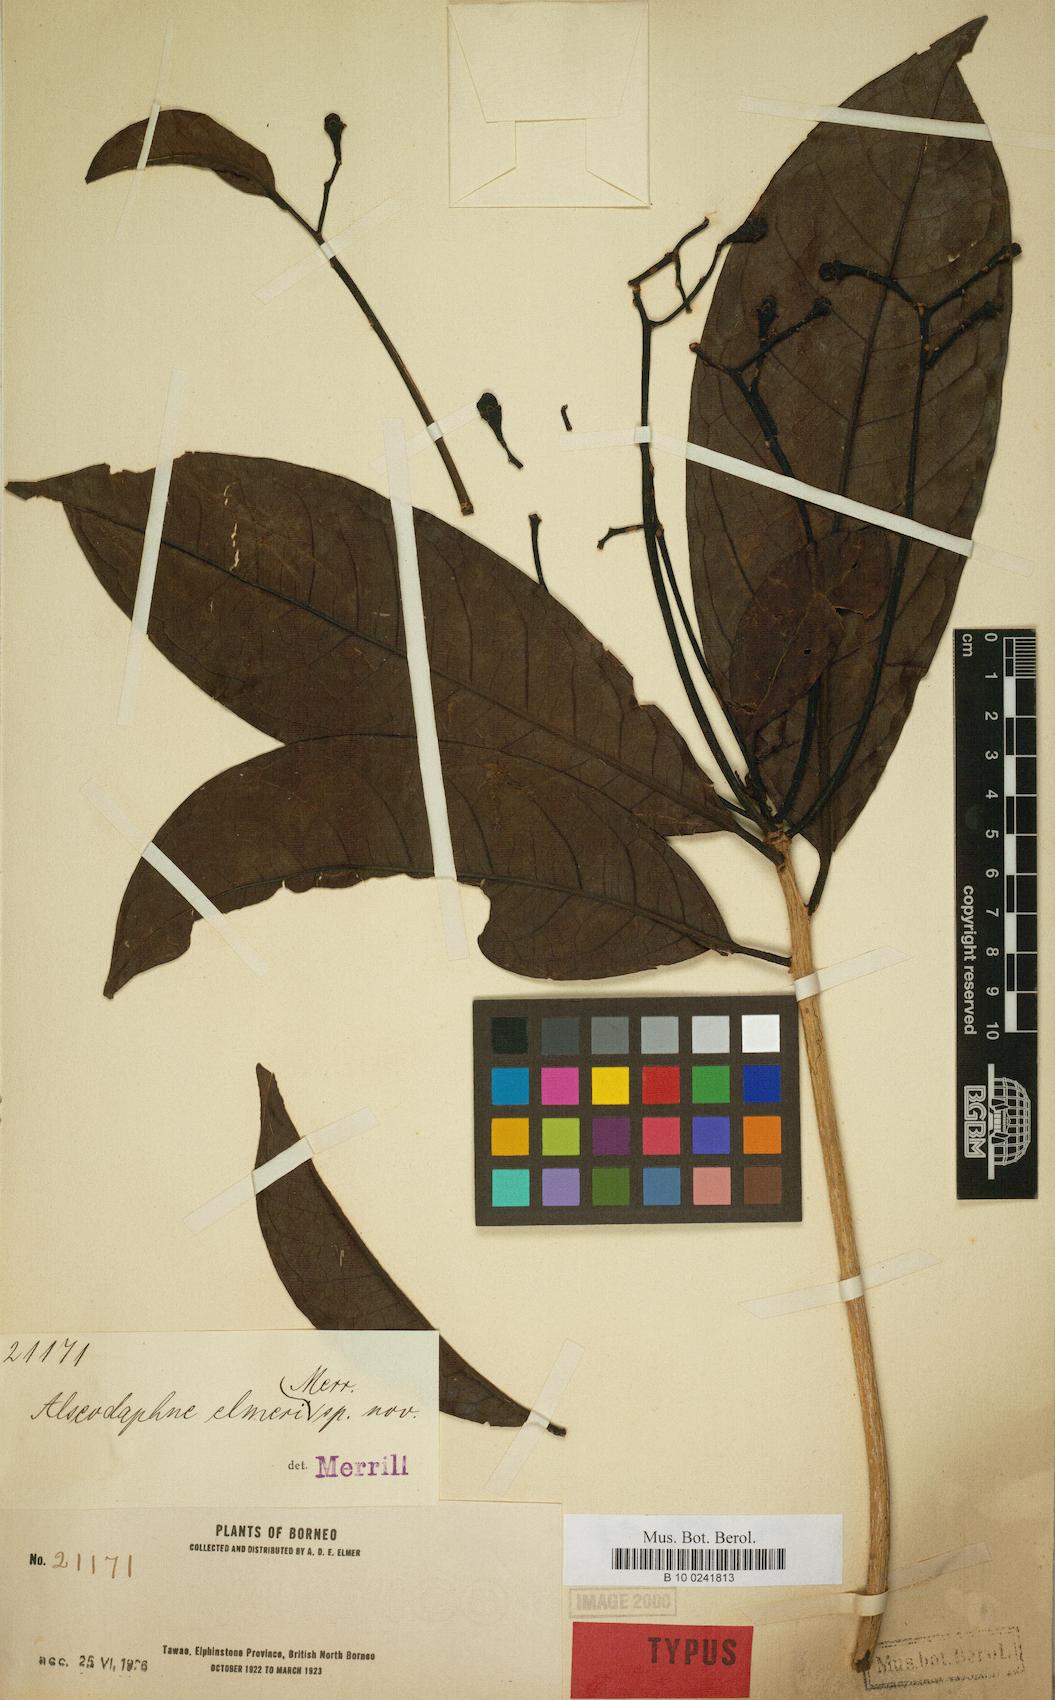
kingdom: Plantae
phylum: Tracheophyta
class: Magnoliopsida
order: Laurales
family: Lauraceae
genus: Alseodaphne
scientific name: Alseodaphne elmeri
